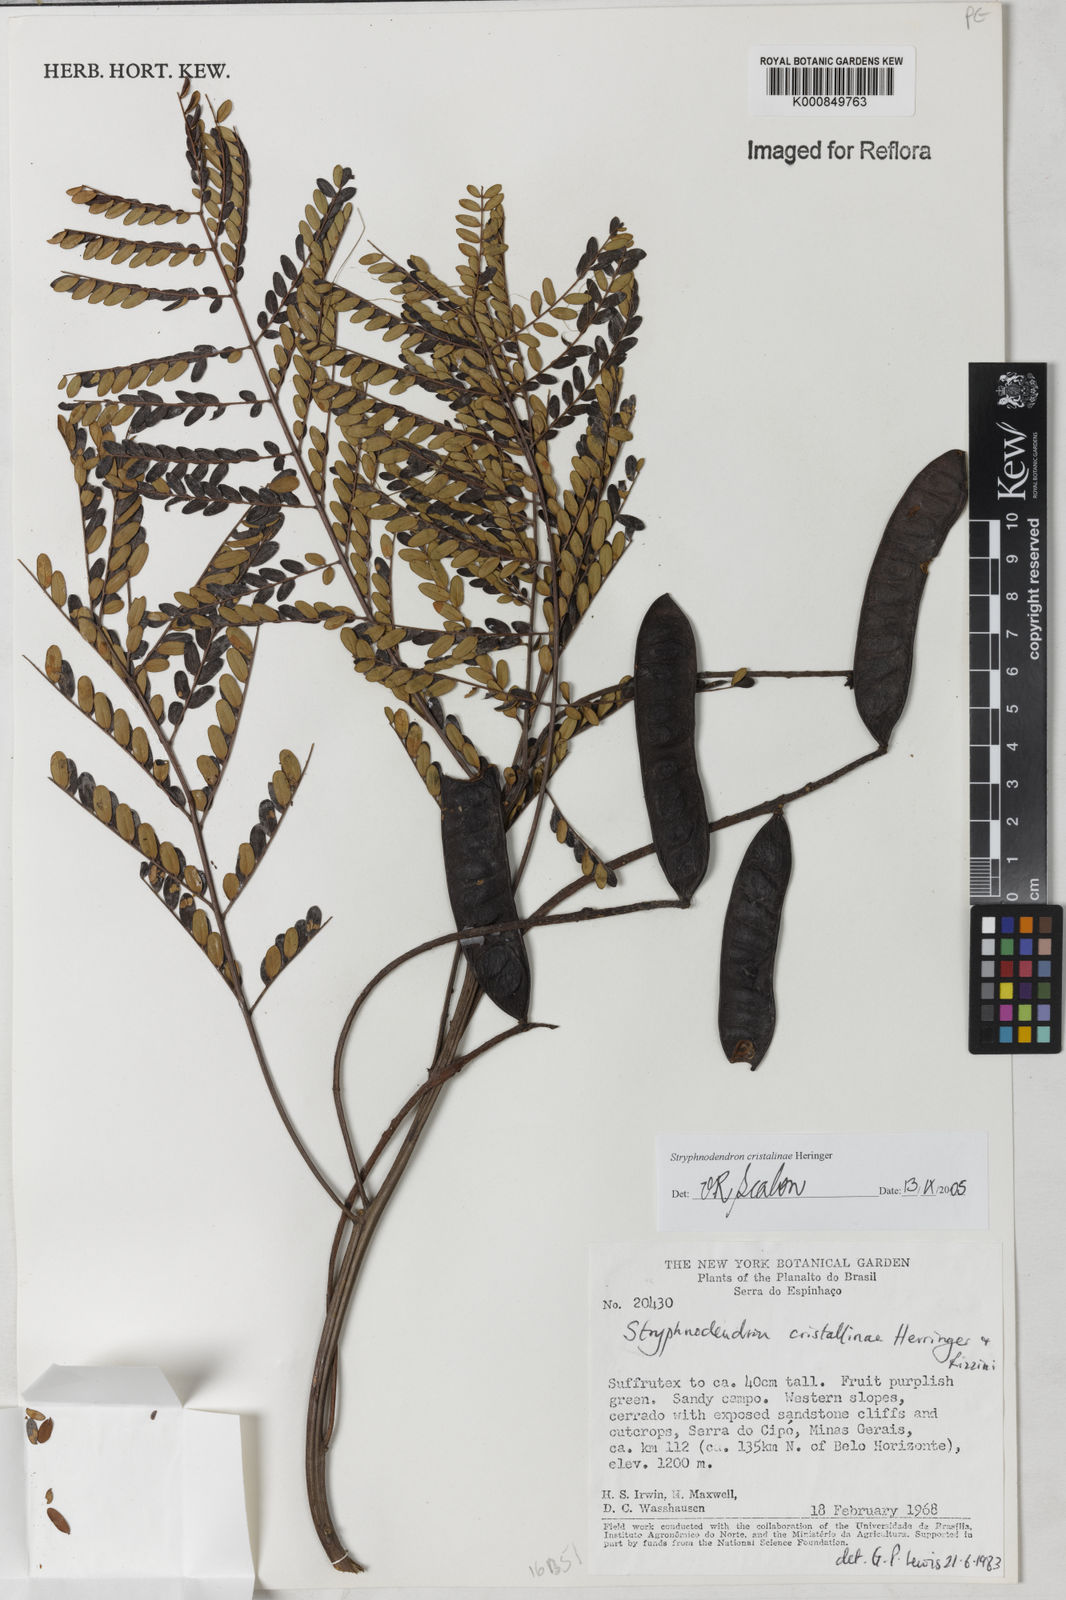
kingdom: Plantae
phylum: Tracheophyta
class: Magnoliopsida
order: Fabales
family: Fabaceae
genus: Stryphnodendron
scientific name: Stryphnodendron cristalinae
